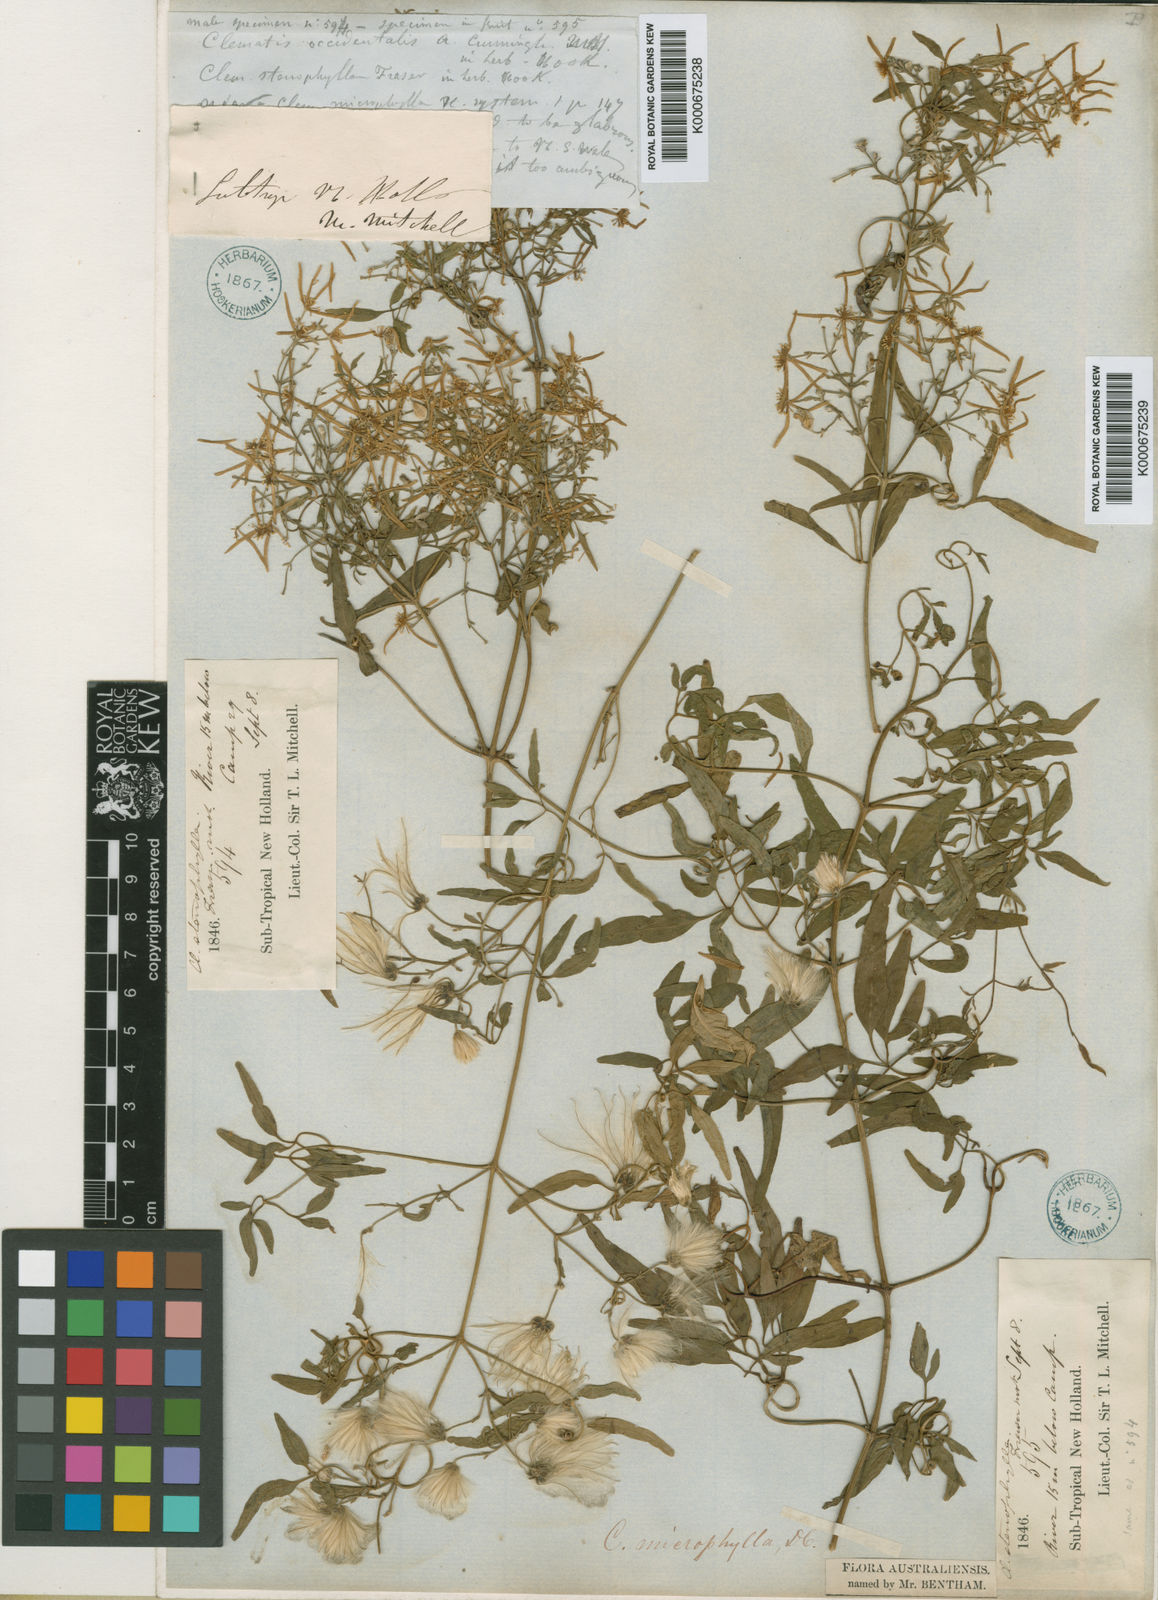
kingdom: Plantae
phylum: Tracheophyta
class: Magnoliopsida
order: Ranunculales
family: Ranunculaceae
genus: Clematis
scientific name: Clematis microphylla
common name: Headachevine
